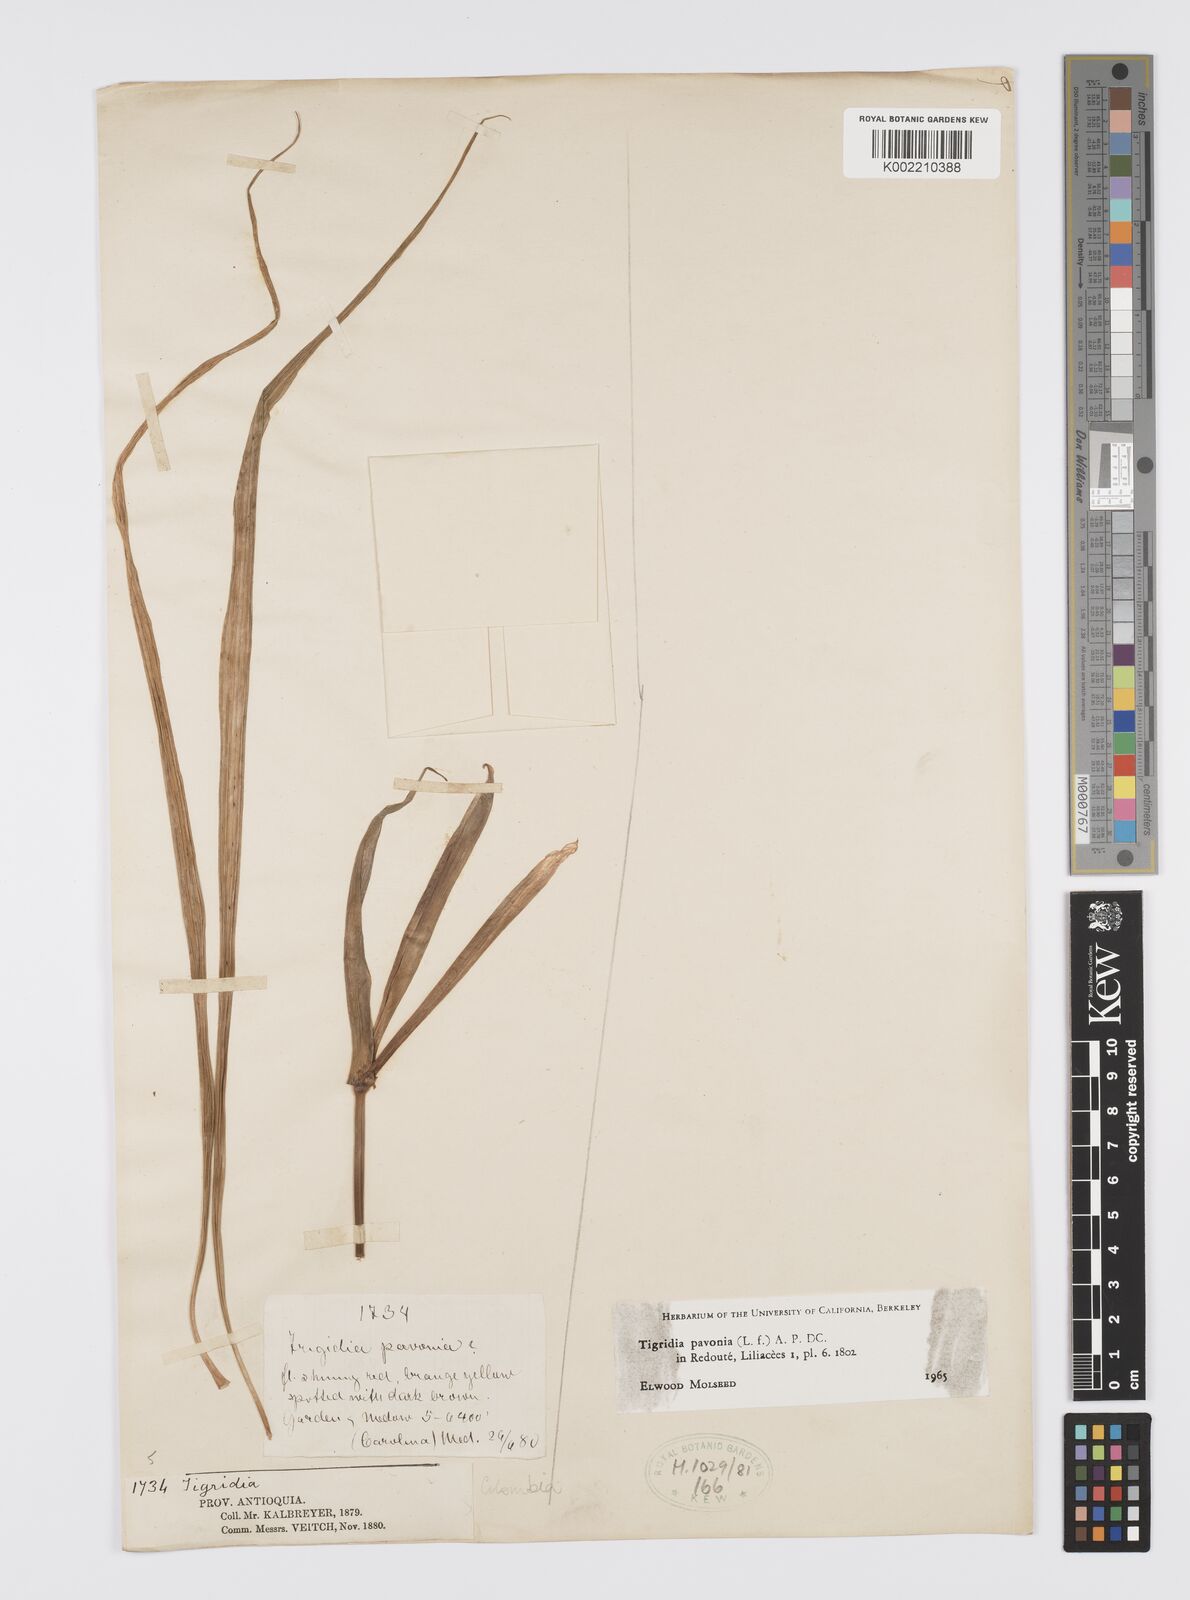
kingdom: Plantae
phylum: Tracheophyta
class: Liliopsida
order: Asparagales
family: Iridaceae
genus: Tigridia
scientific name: Tigridia pavonia
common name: Peacock-flower
